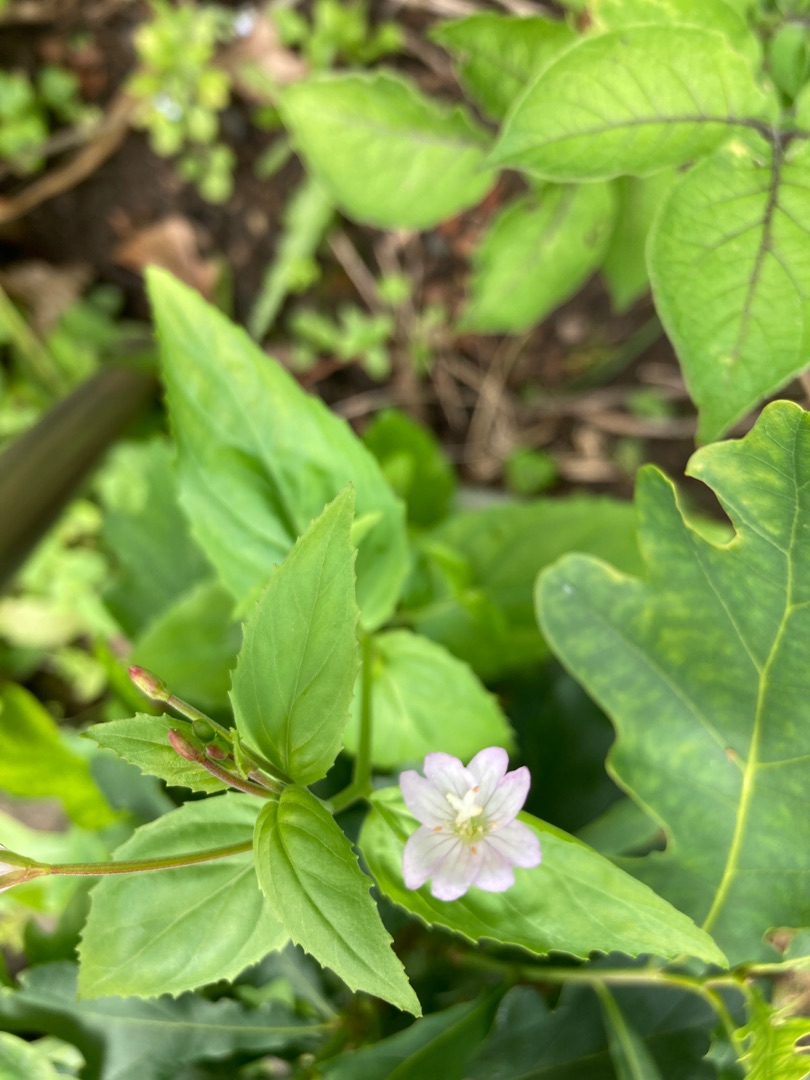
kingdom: Plantae
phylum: Tracheophyta
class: Magnoliopsida
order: Myrtales
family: Onagraceae
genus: Epilobium
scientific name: Epilobium montanum
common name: Glat dueurt
